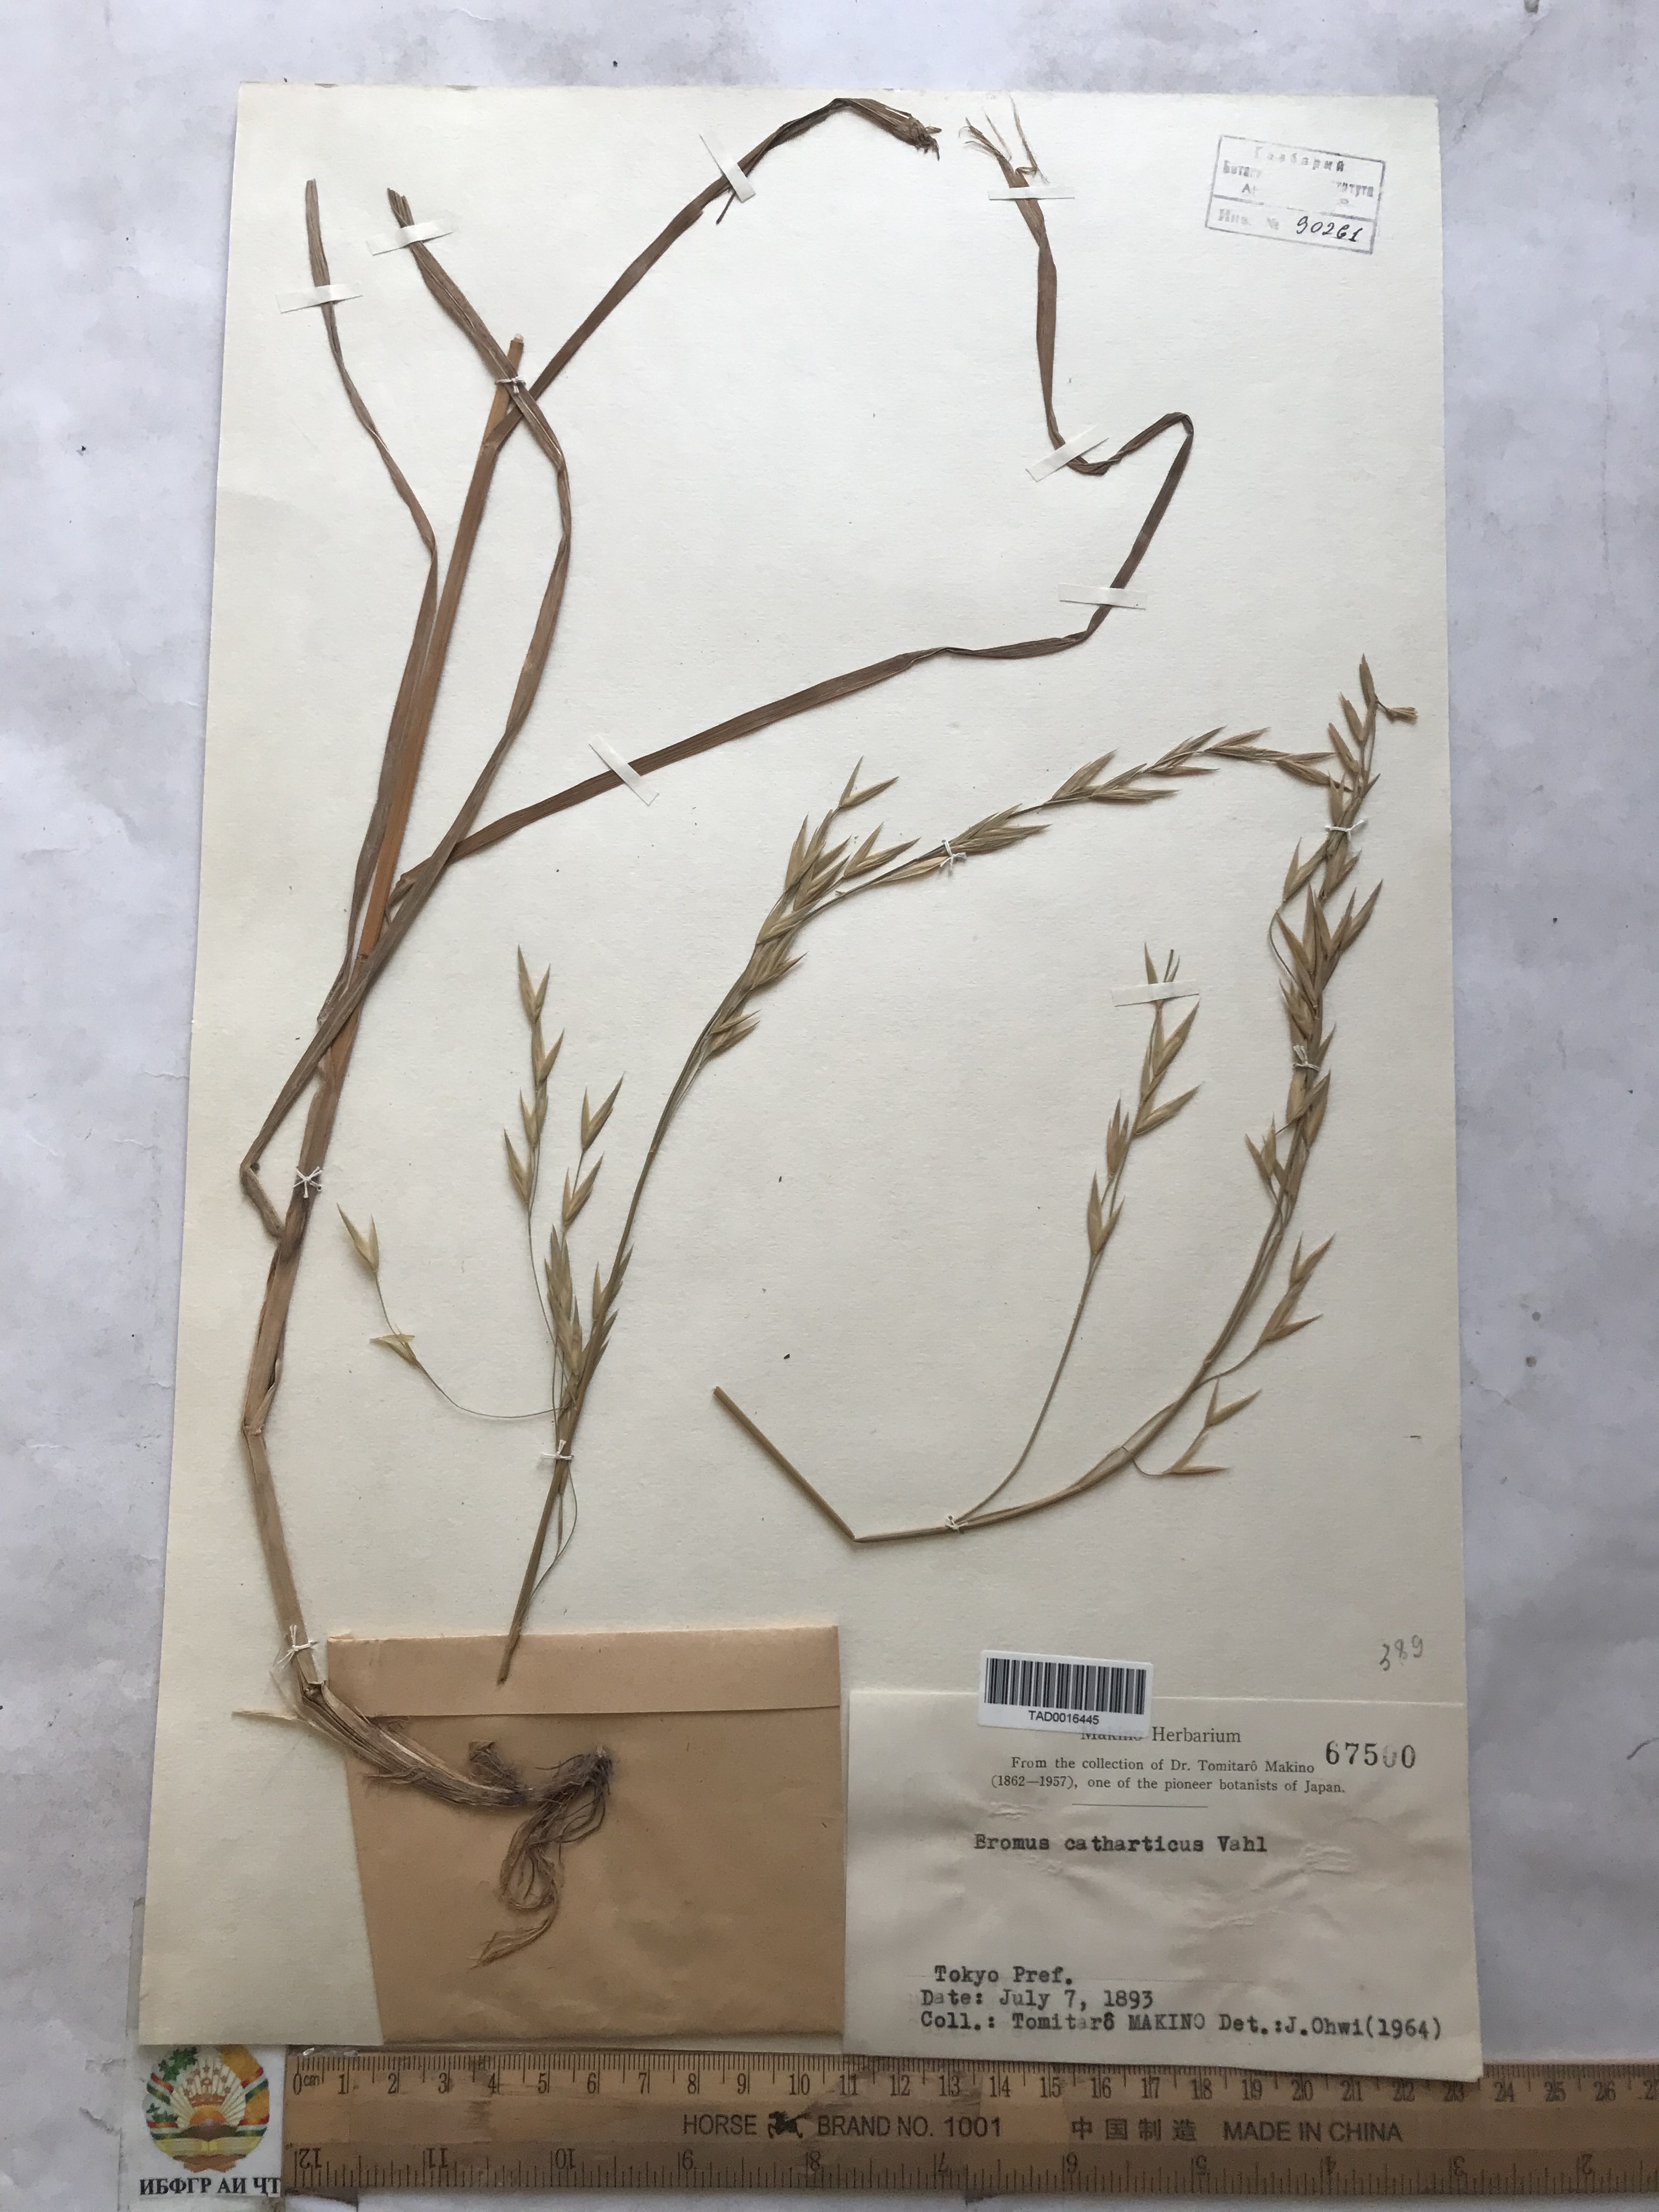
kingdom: Plantae
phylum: Tracheophyta
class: Liliopsida
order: Poales
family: Poaceae
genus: Bromus
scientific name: Bromus catharticus
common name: Rescuegrass
